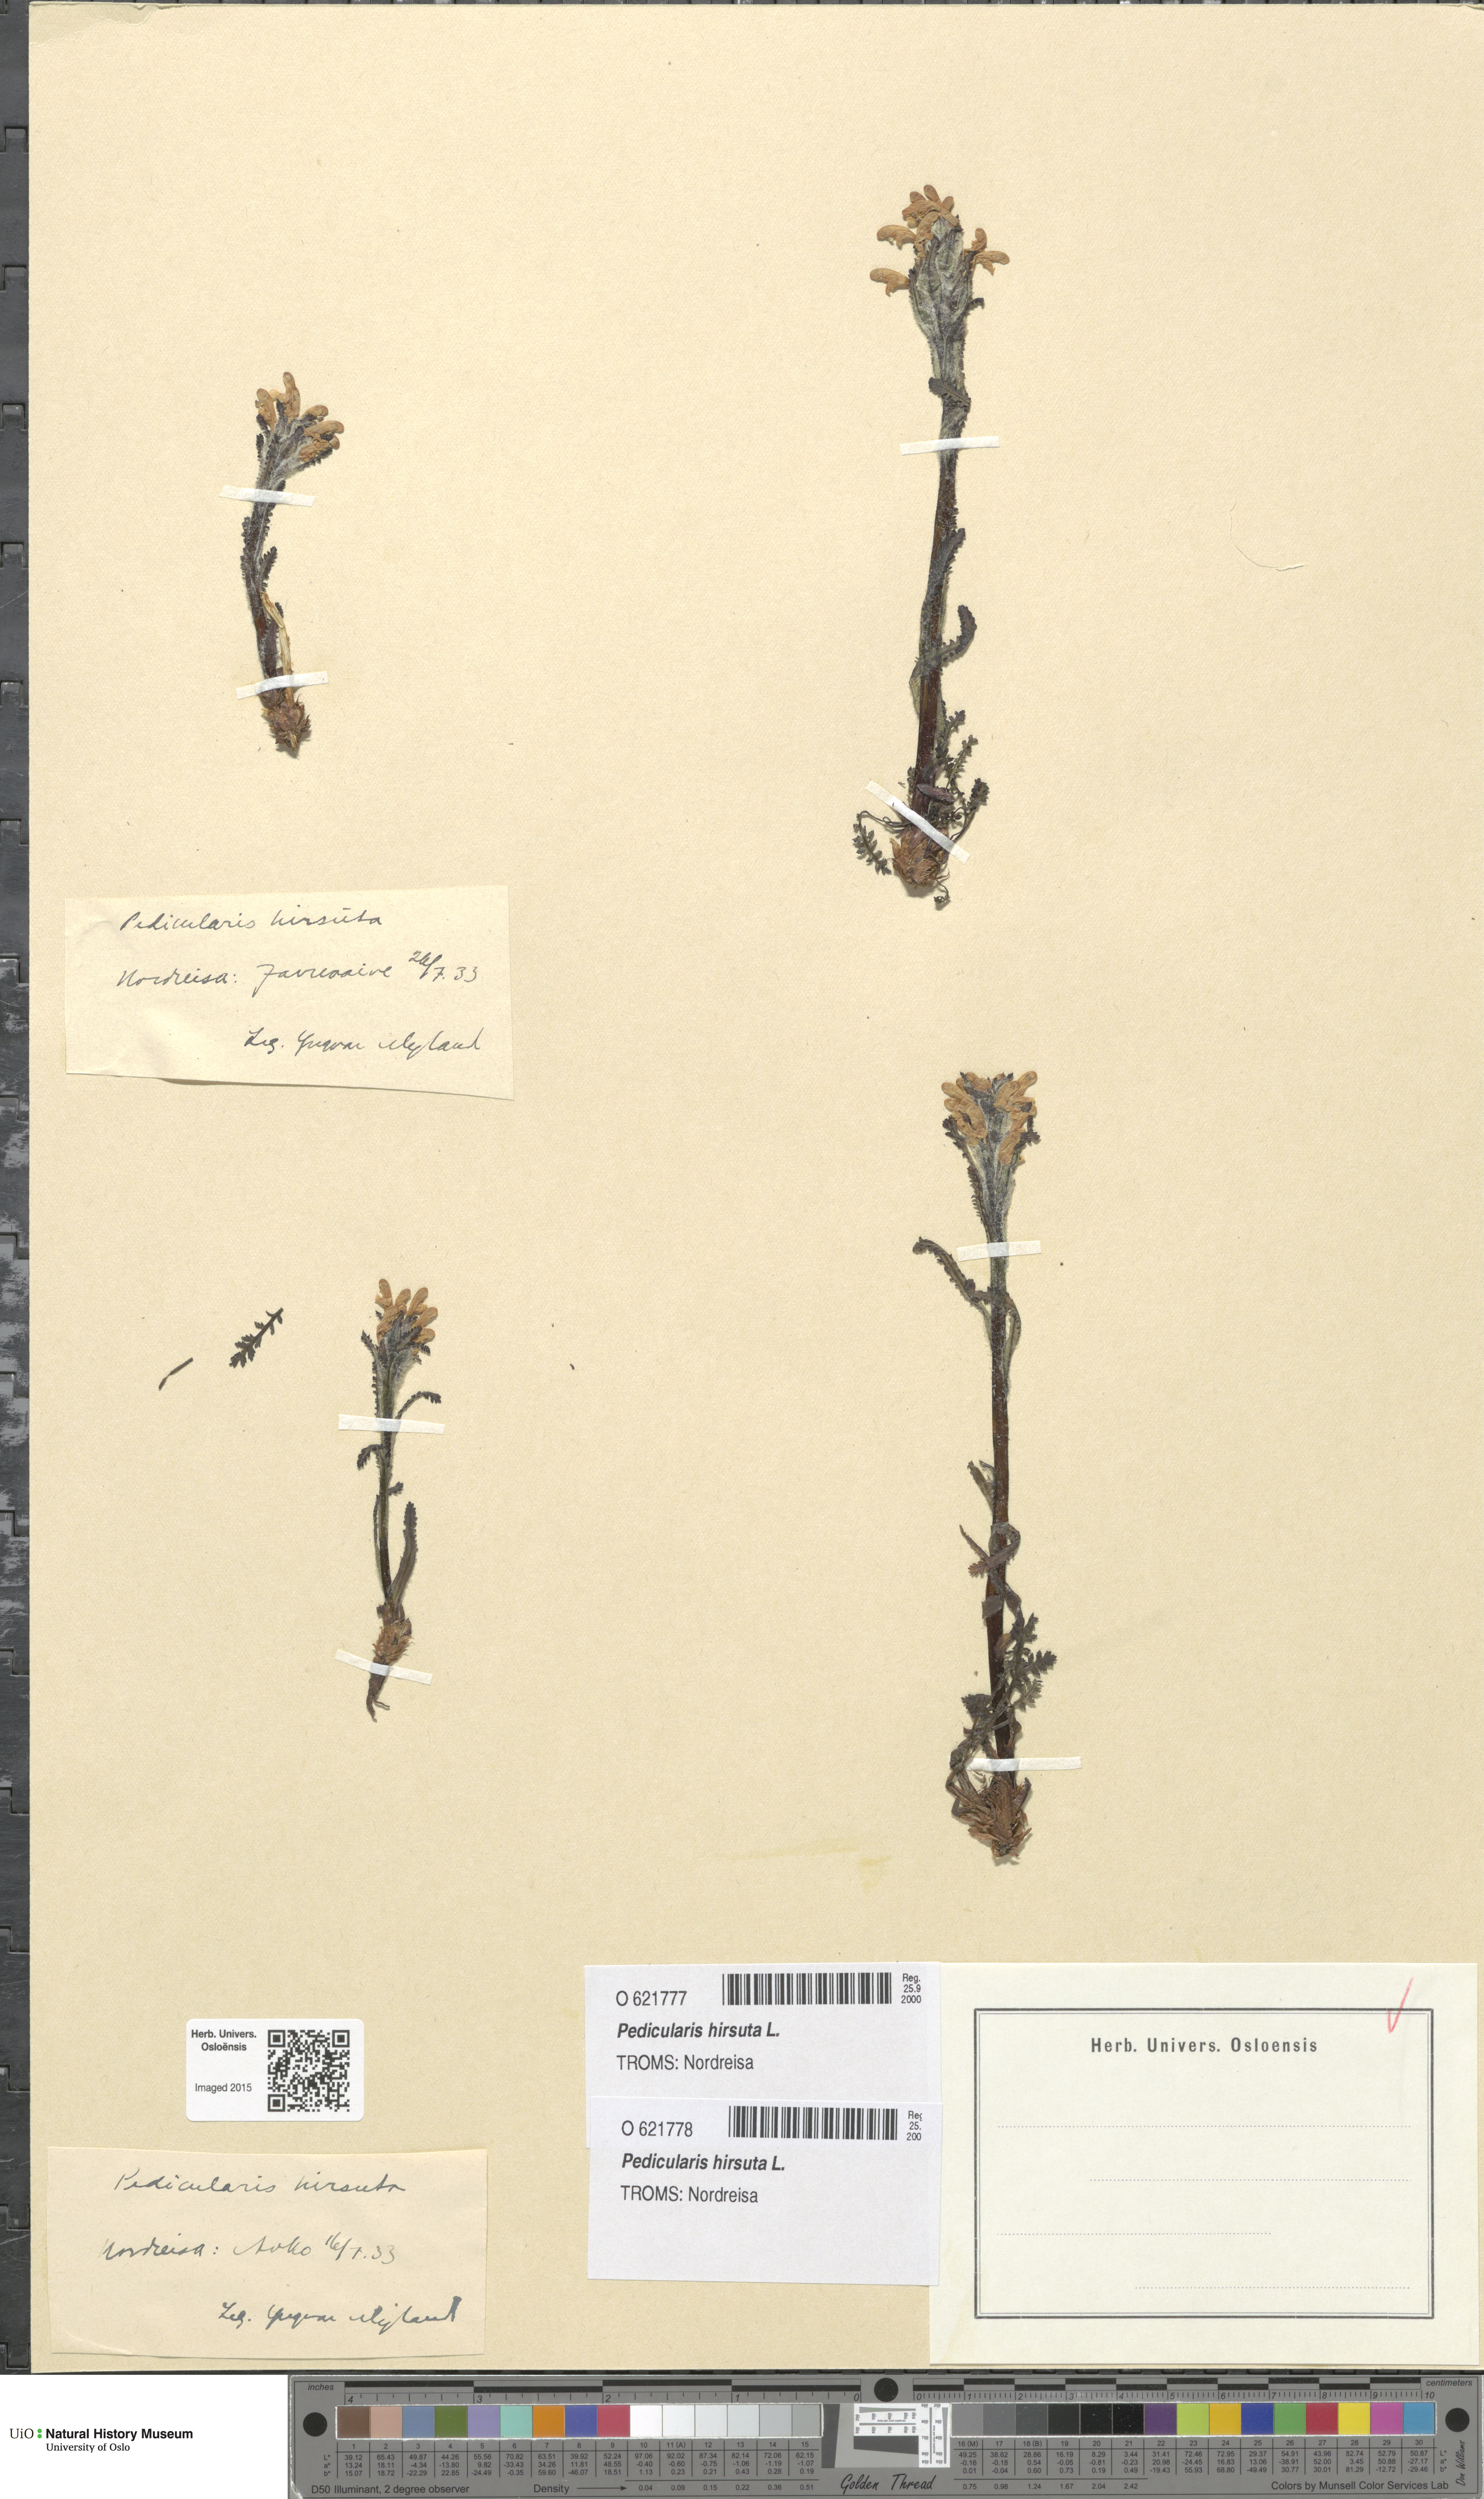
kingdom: Plantae
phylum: Tracheophyta
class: Magnoliopsida
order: Lamiales
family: Orobanchaceae
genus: Pedicularis
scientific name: Pedicularis hirsuta
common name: Hairy lousewort
